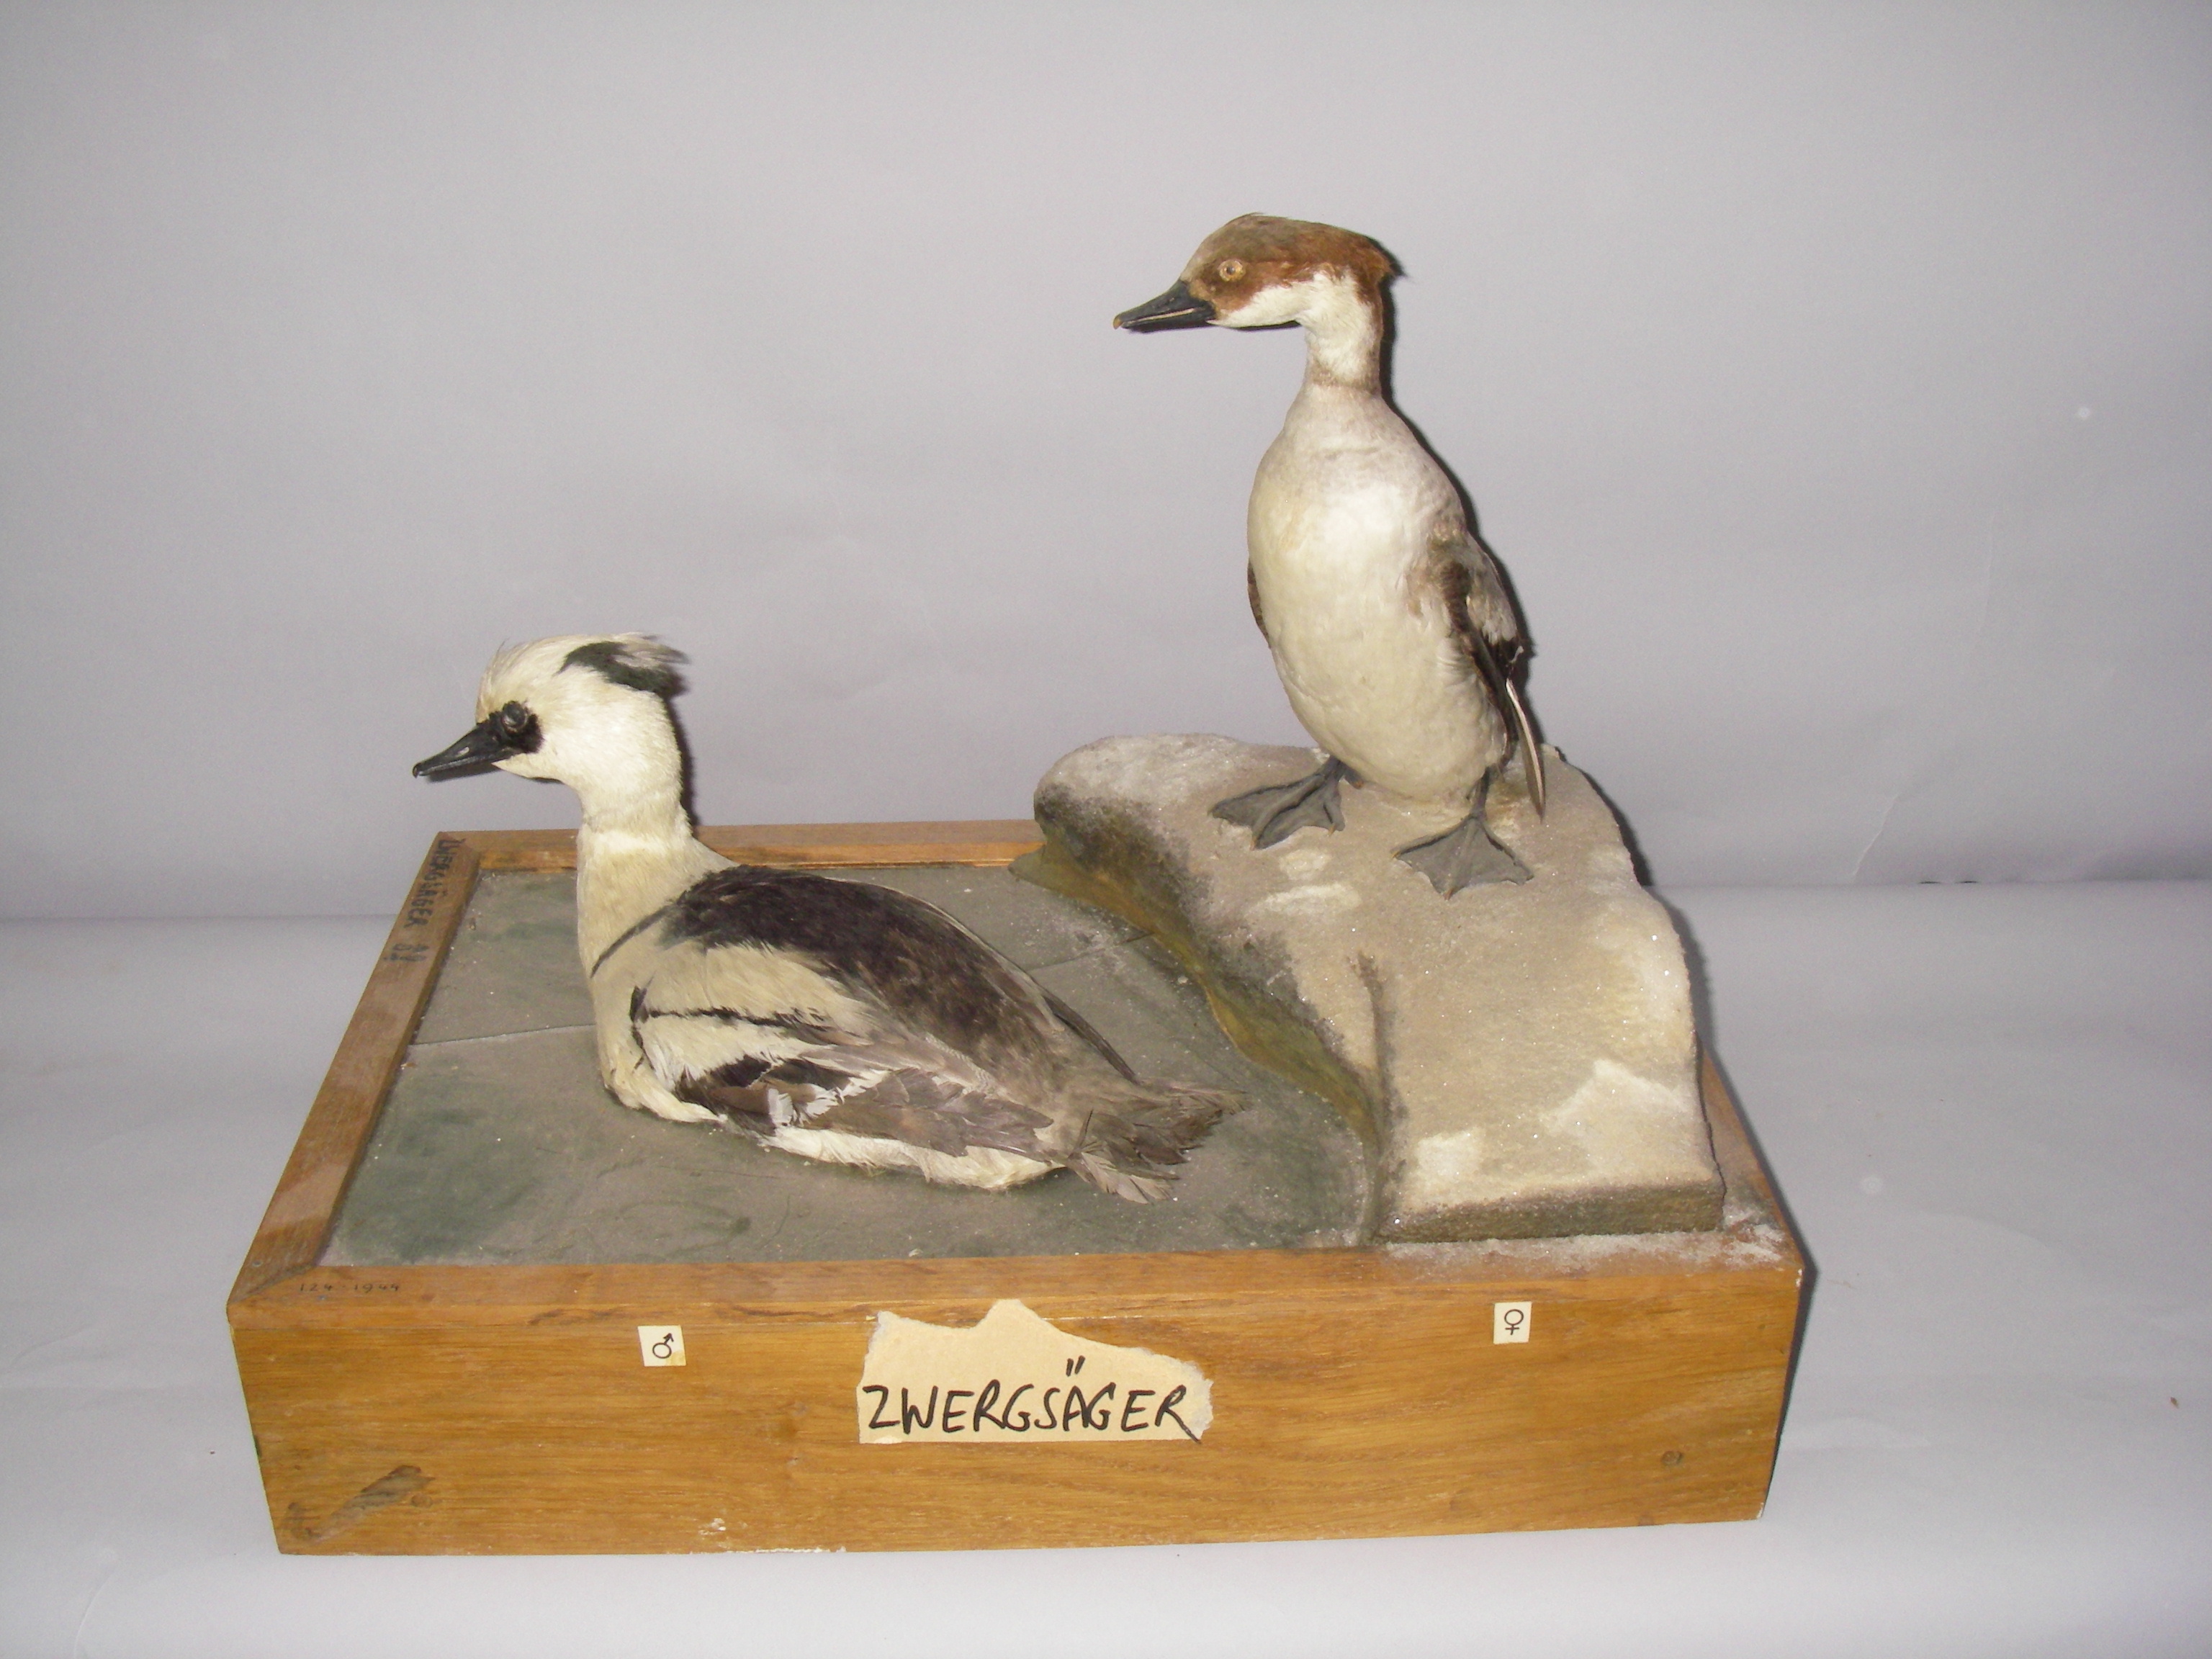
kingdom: Animalia
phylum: Chordata
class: Aves
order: Anseriformes
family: Anatidae
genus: Mergellus
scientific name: Mergellus albellus
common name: Smew
